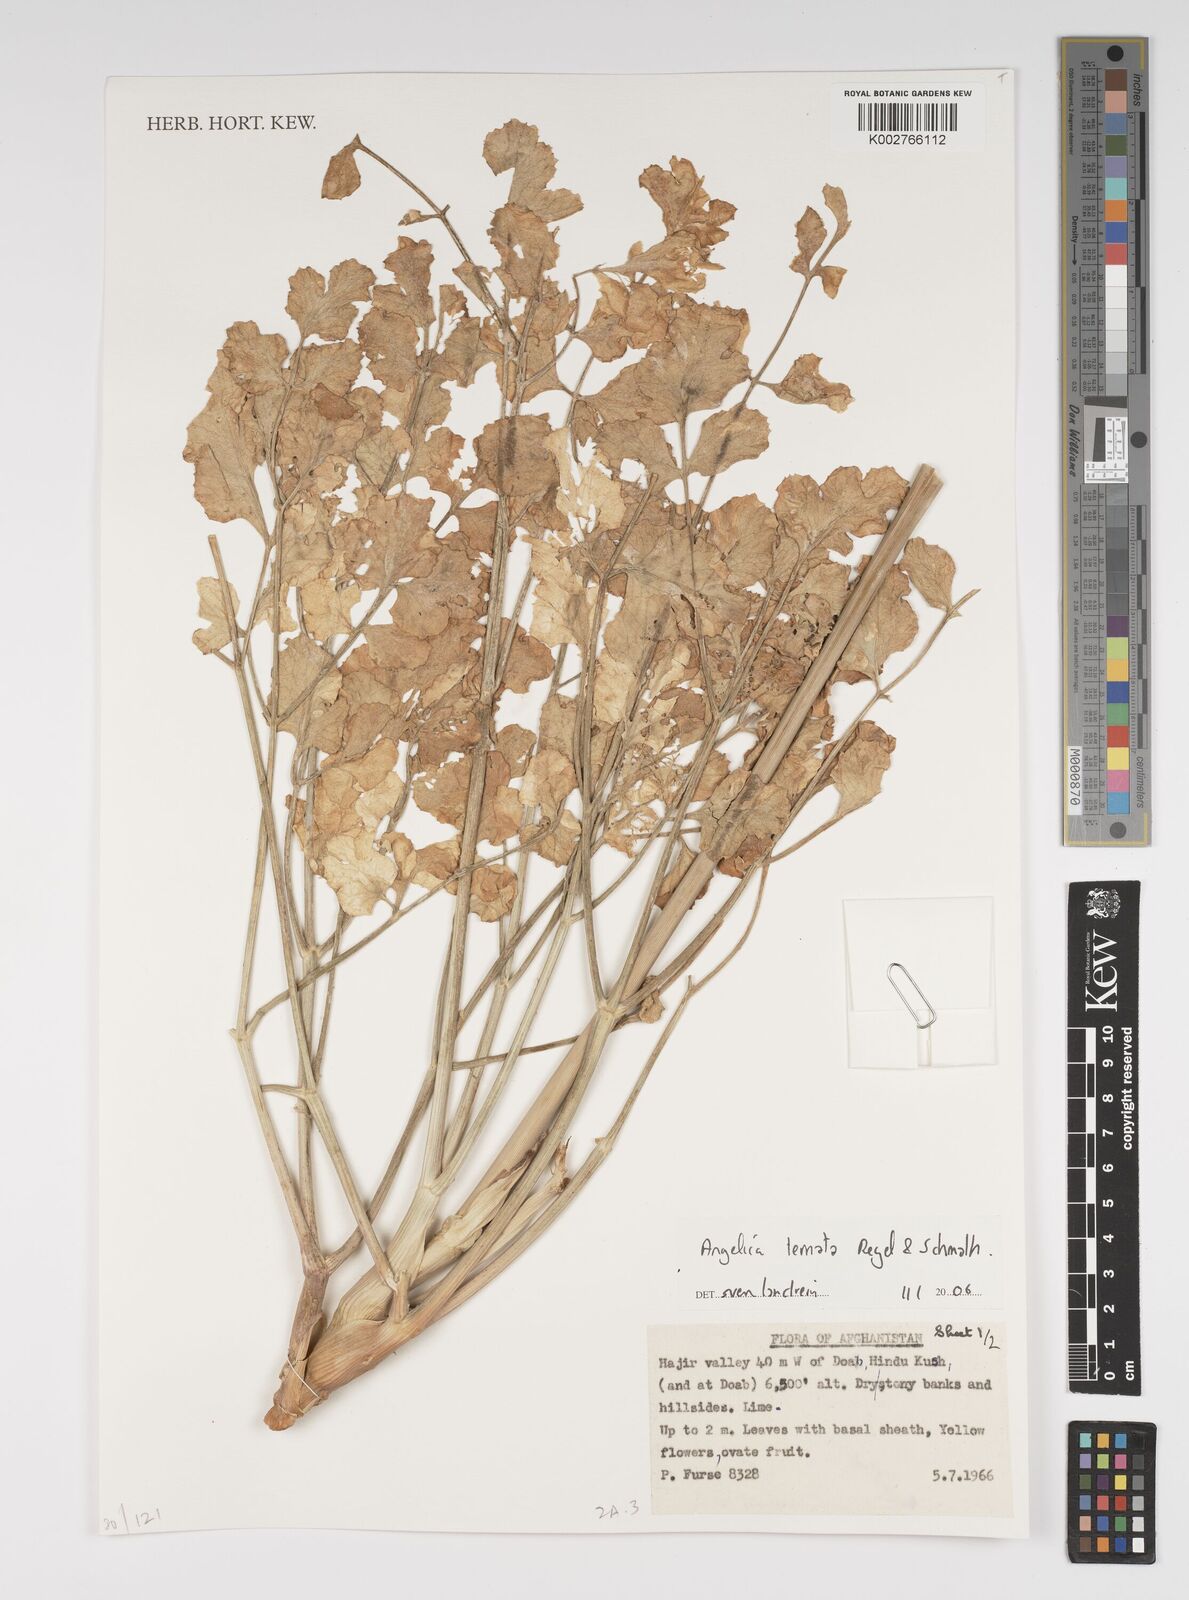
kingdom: Plantae
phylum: Tracheophyta
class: Magnoliopsida
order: Apiales
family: Apiaceae
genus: Angelica
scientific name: Angelica ternata
